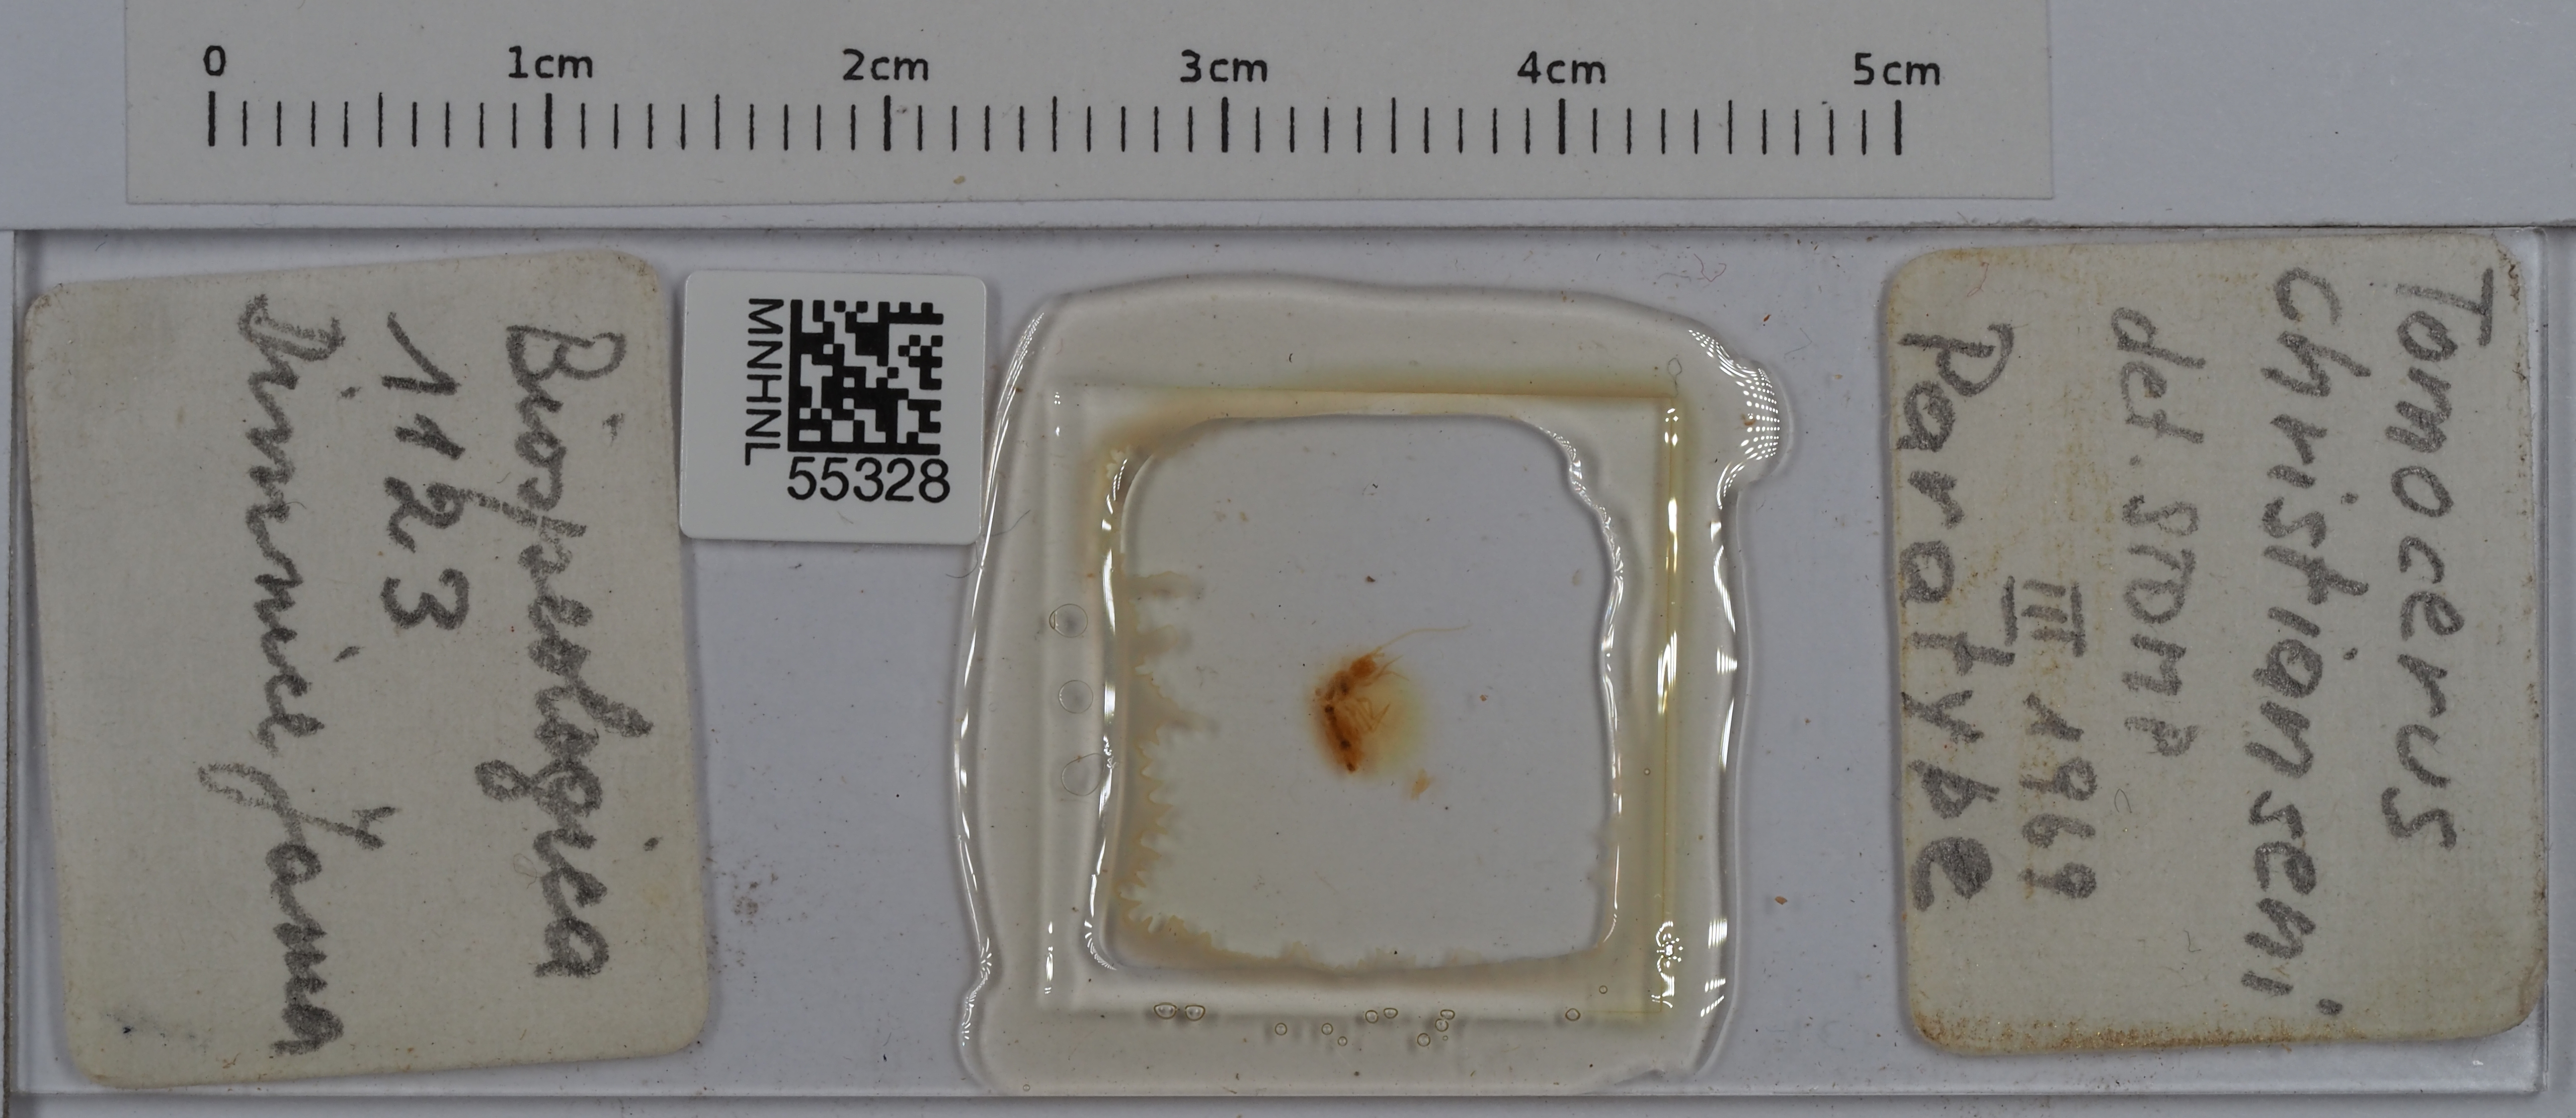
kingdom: Animalia
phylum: Arthropoda
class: Collembola
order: Entomobryomorpha
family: Tomoceridae
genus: Tomocerus
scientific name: Tomocerus christianseni
